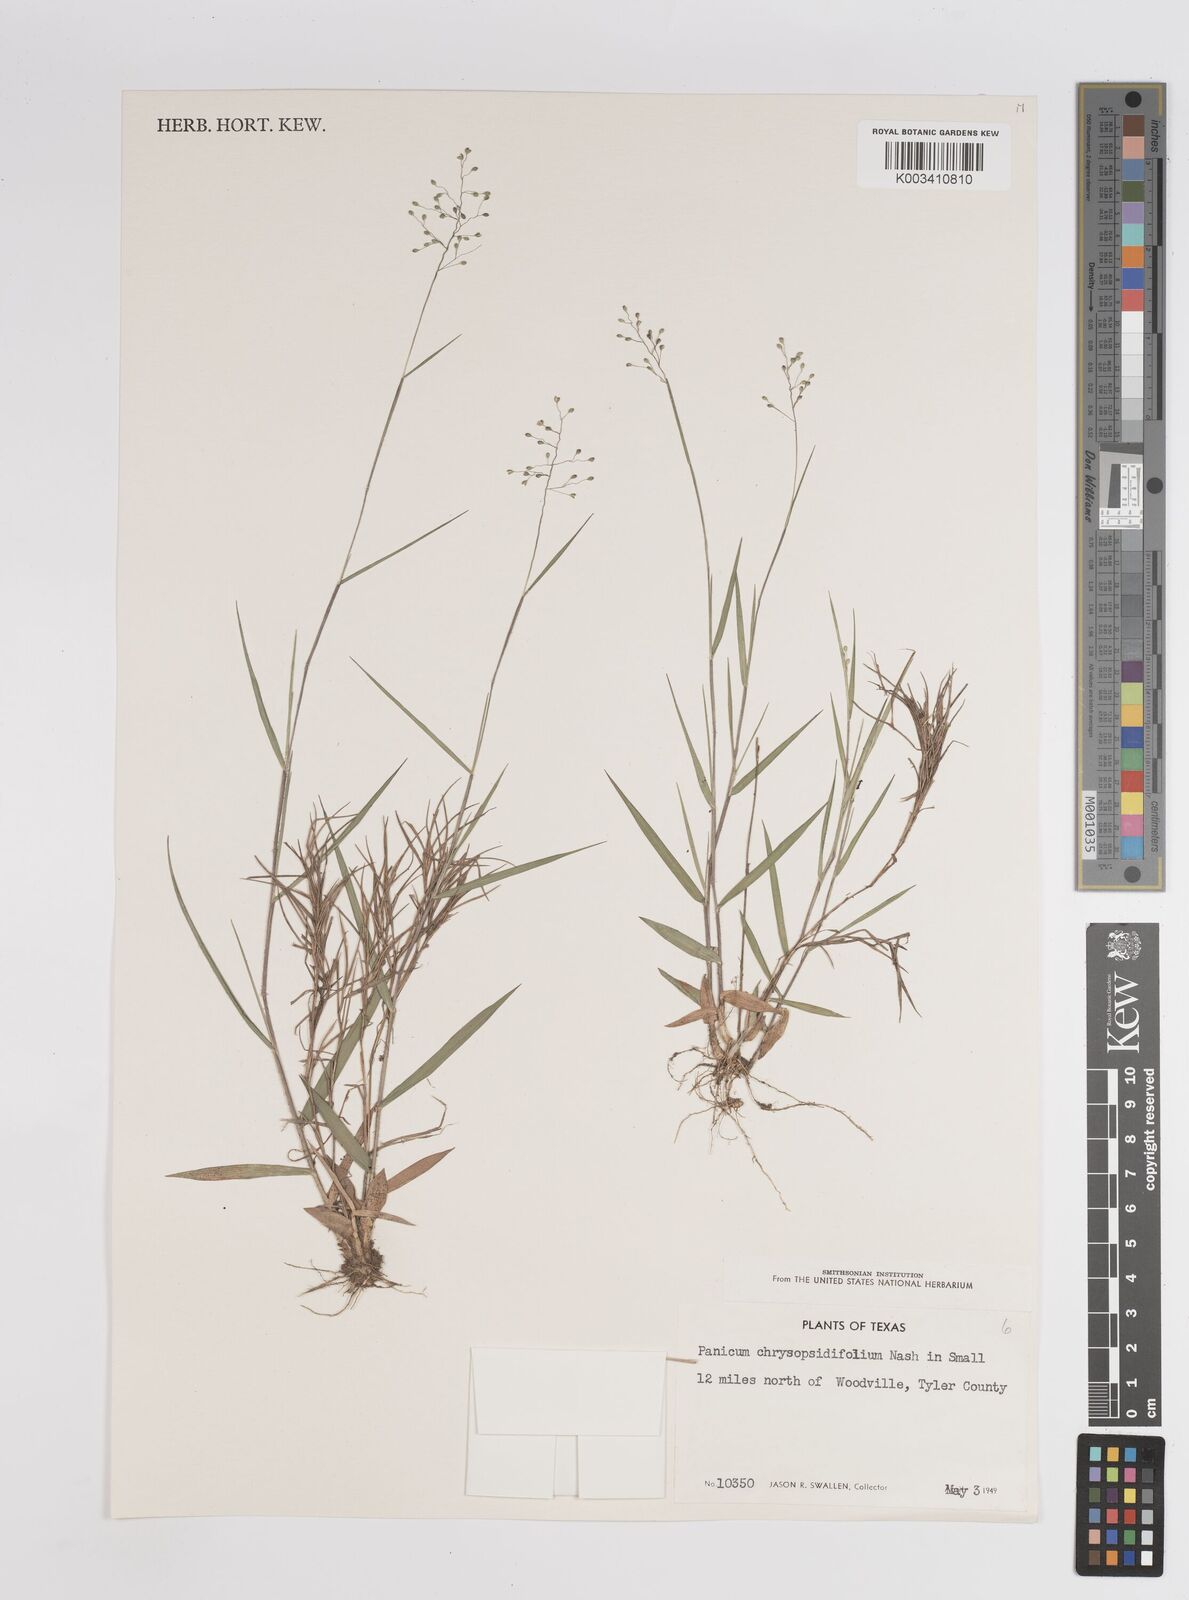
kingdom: Plantae
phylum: Tracheophyta
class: Liliopsida
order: Poales
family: Poaceae
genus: Dichanthelium
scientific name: Dichanthelium acuminatum
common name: Hairy panic grass
